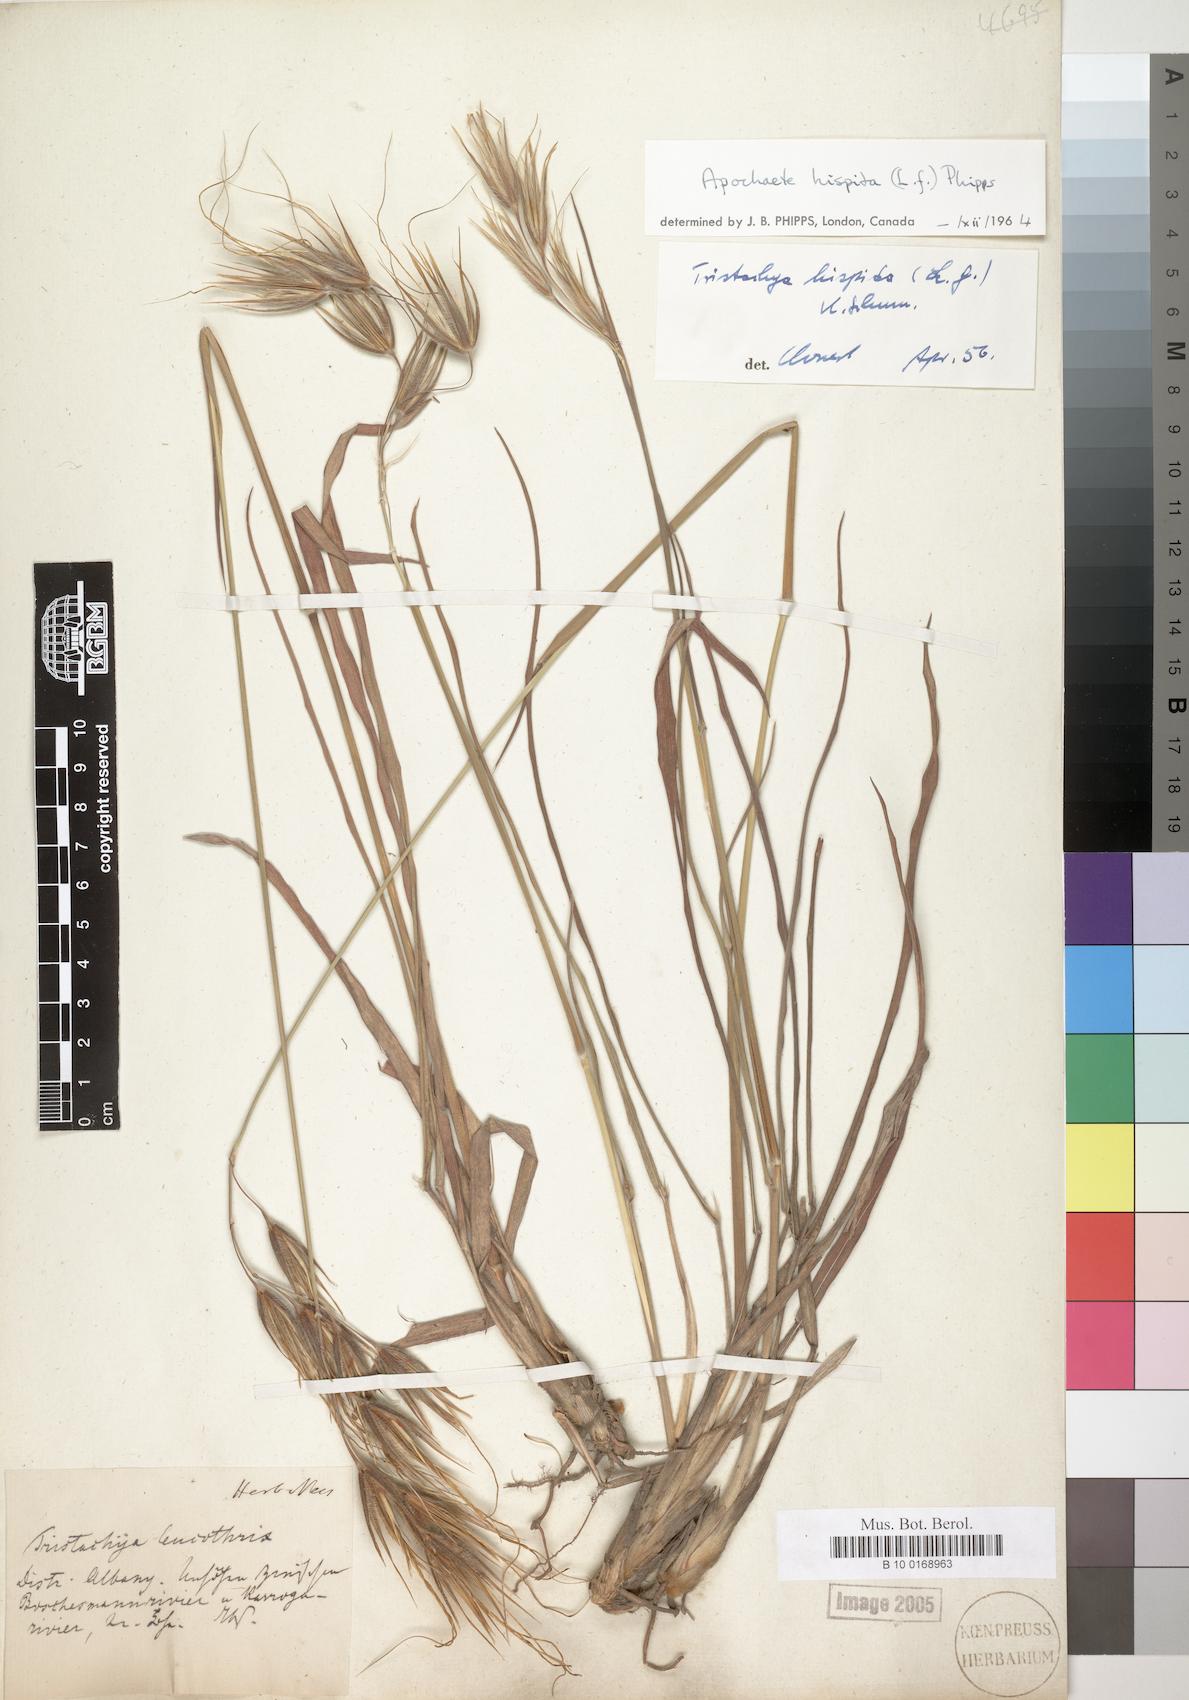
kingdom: Plantae
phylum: Tracheophyta
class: Liliopsida
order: Poales
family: Poaceae
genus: Tristachya
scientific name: Tristachya leucothrix
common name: Trident grass
